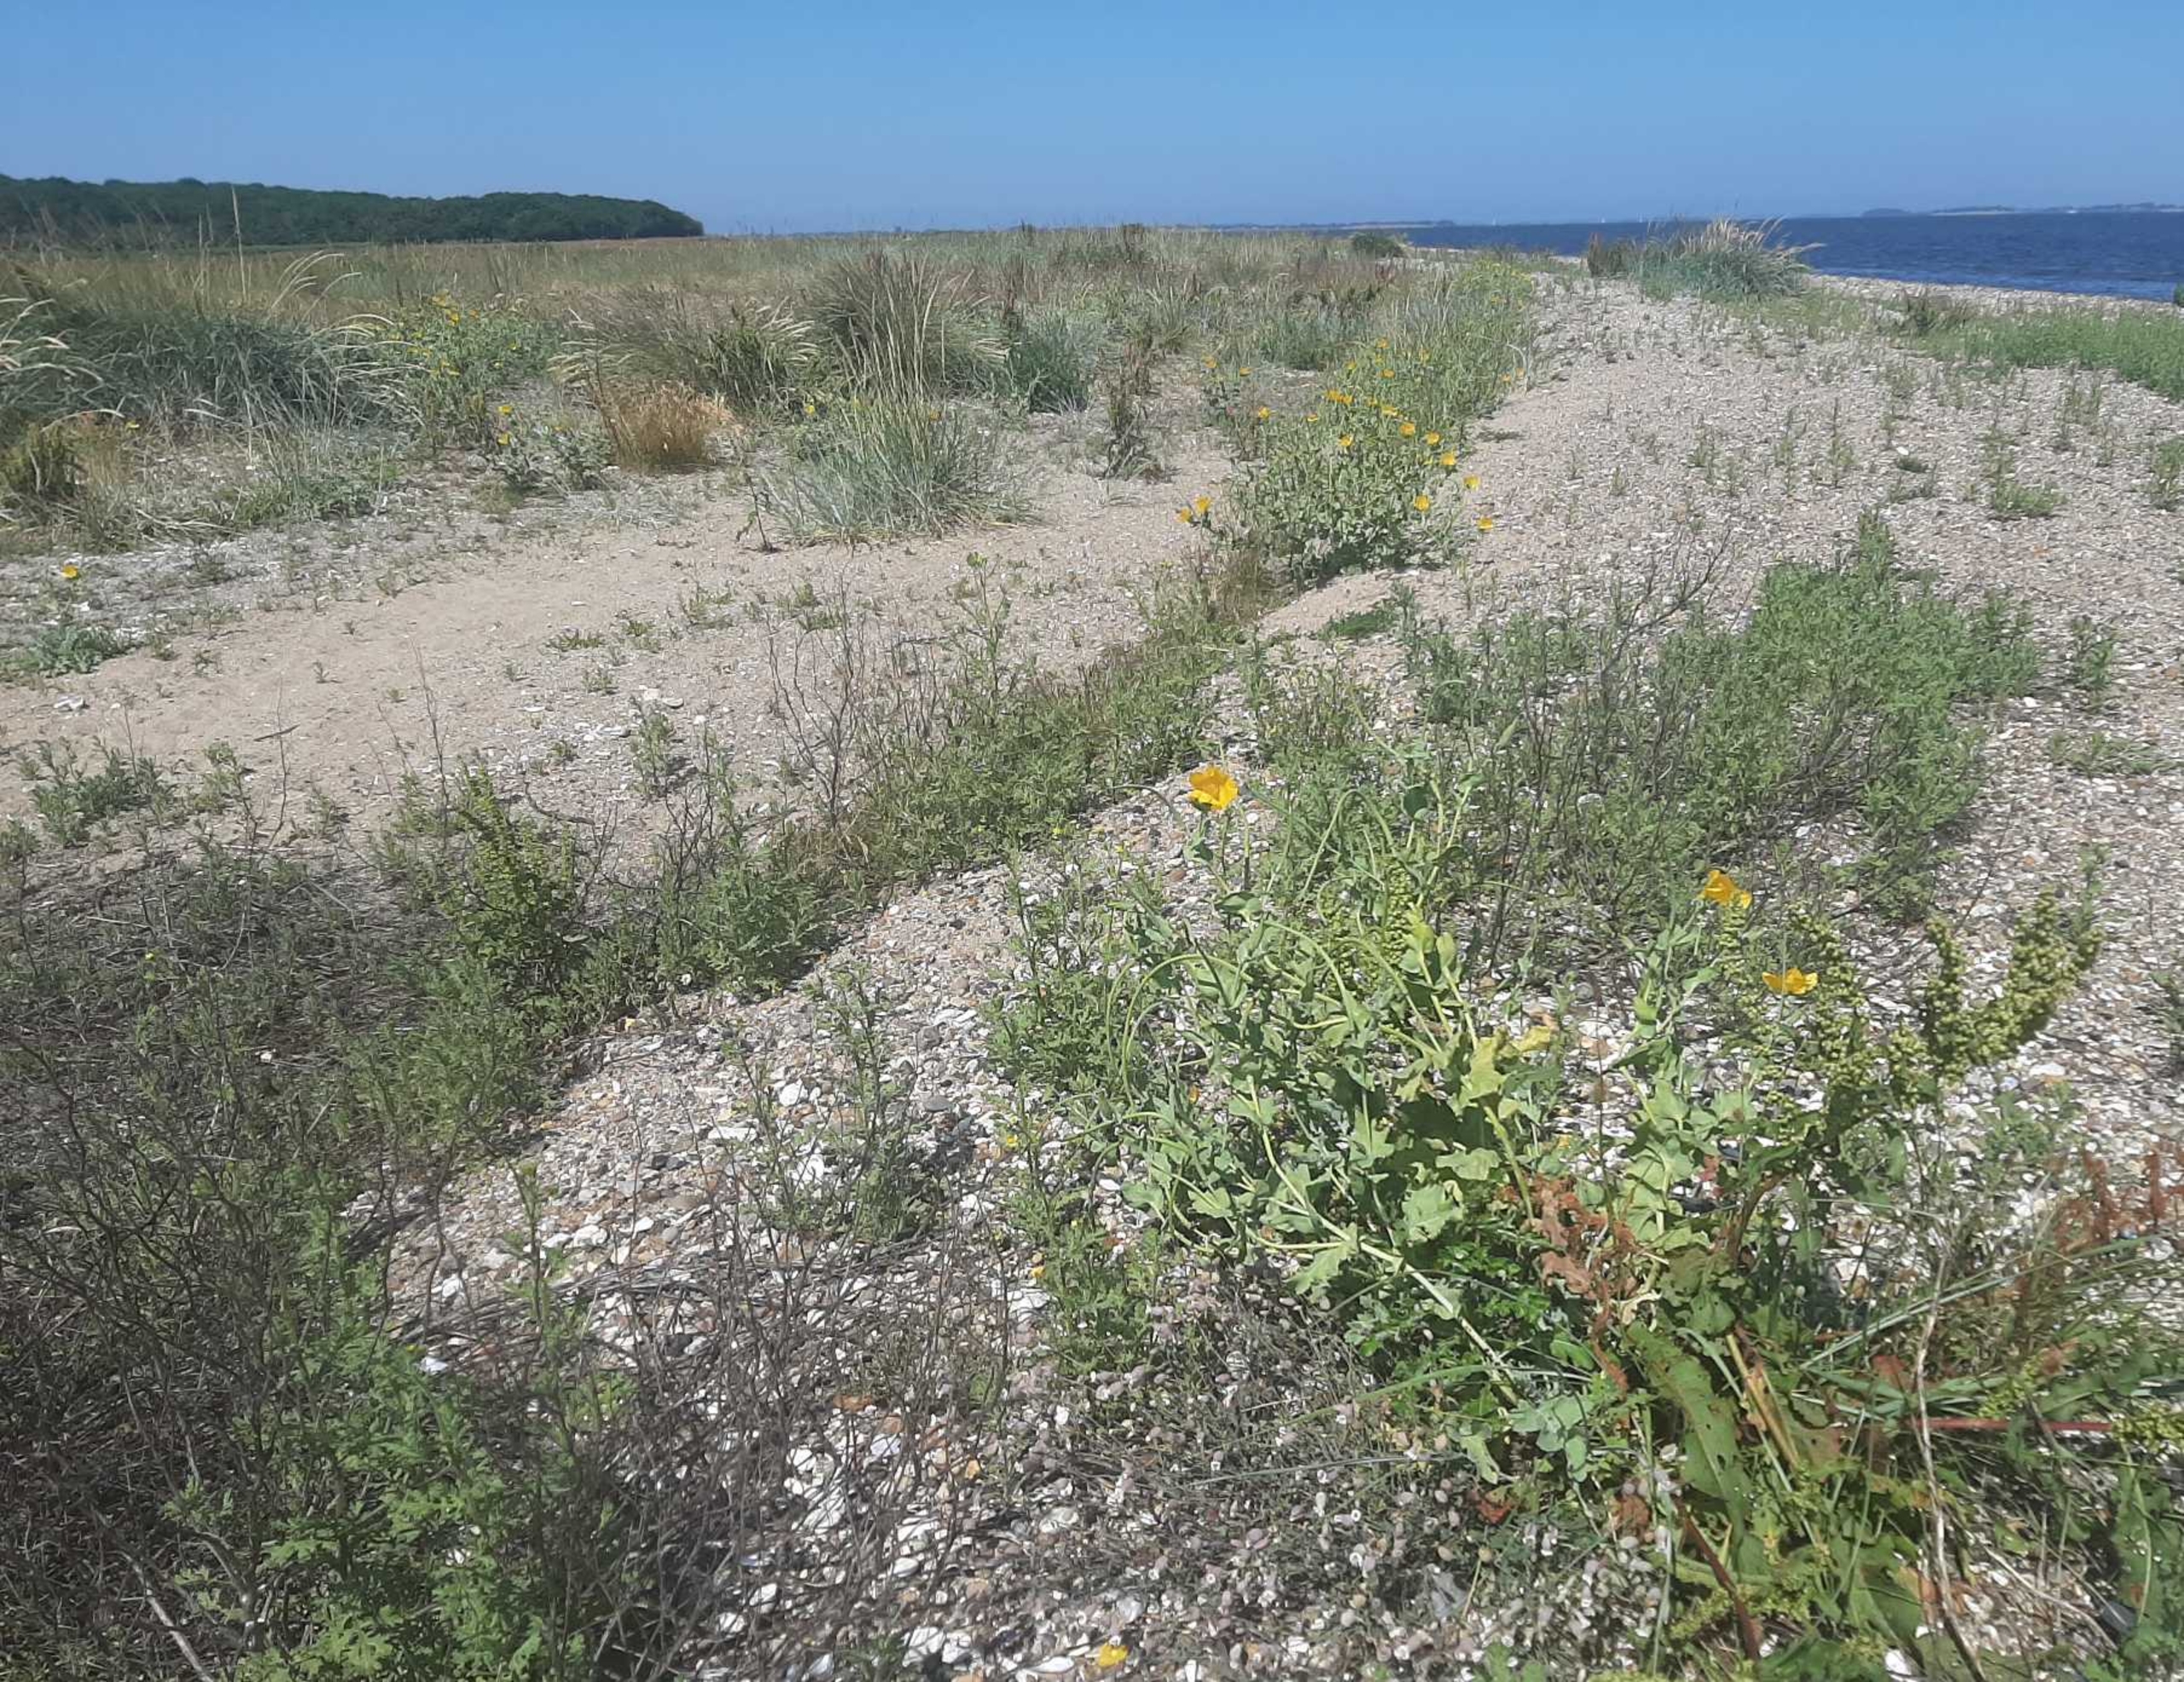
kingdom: Plantae
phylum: Tracheophyta
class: Magnoliopsida
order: Ranunculales
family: Papaveraceae
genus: Glaucium
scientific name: Glaucium flavum
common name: Hornskulpe
